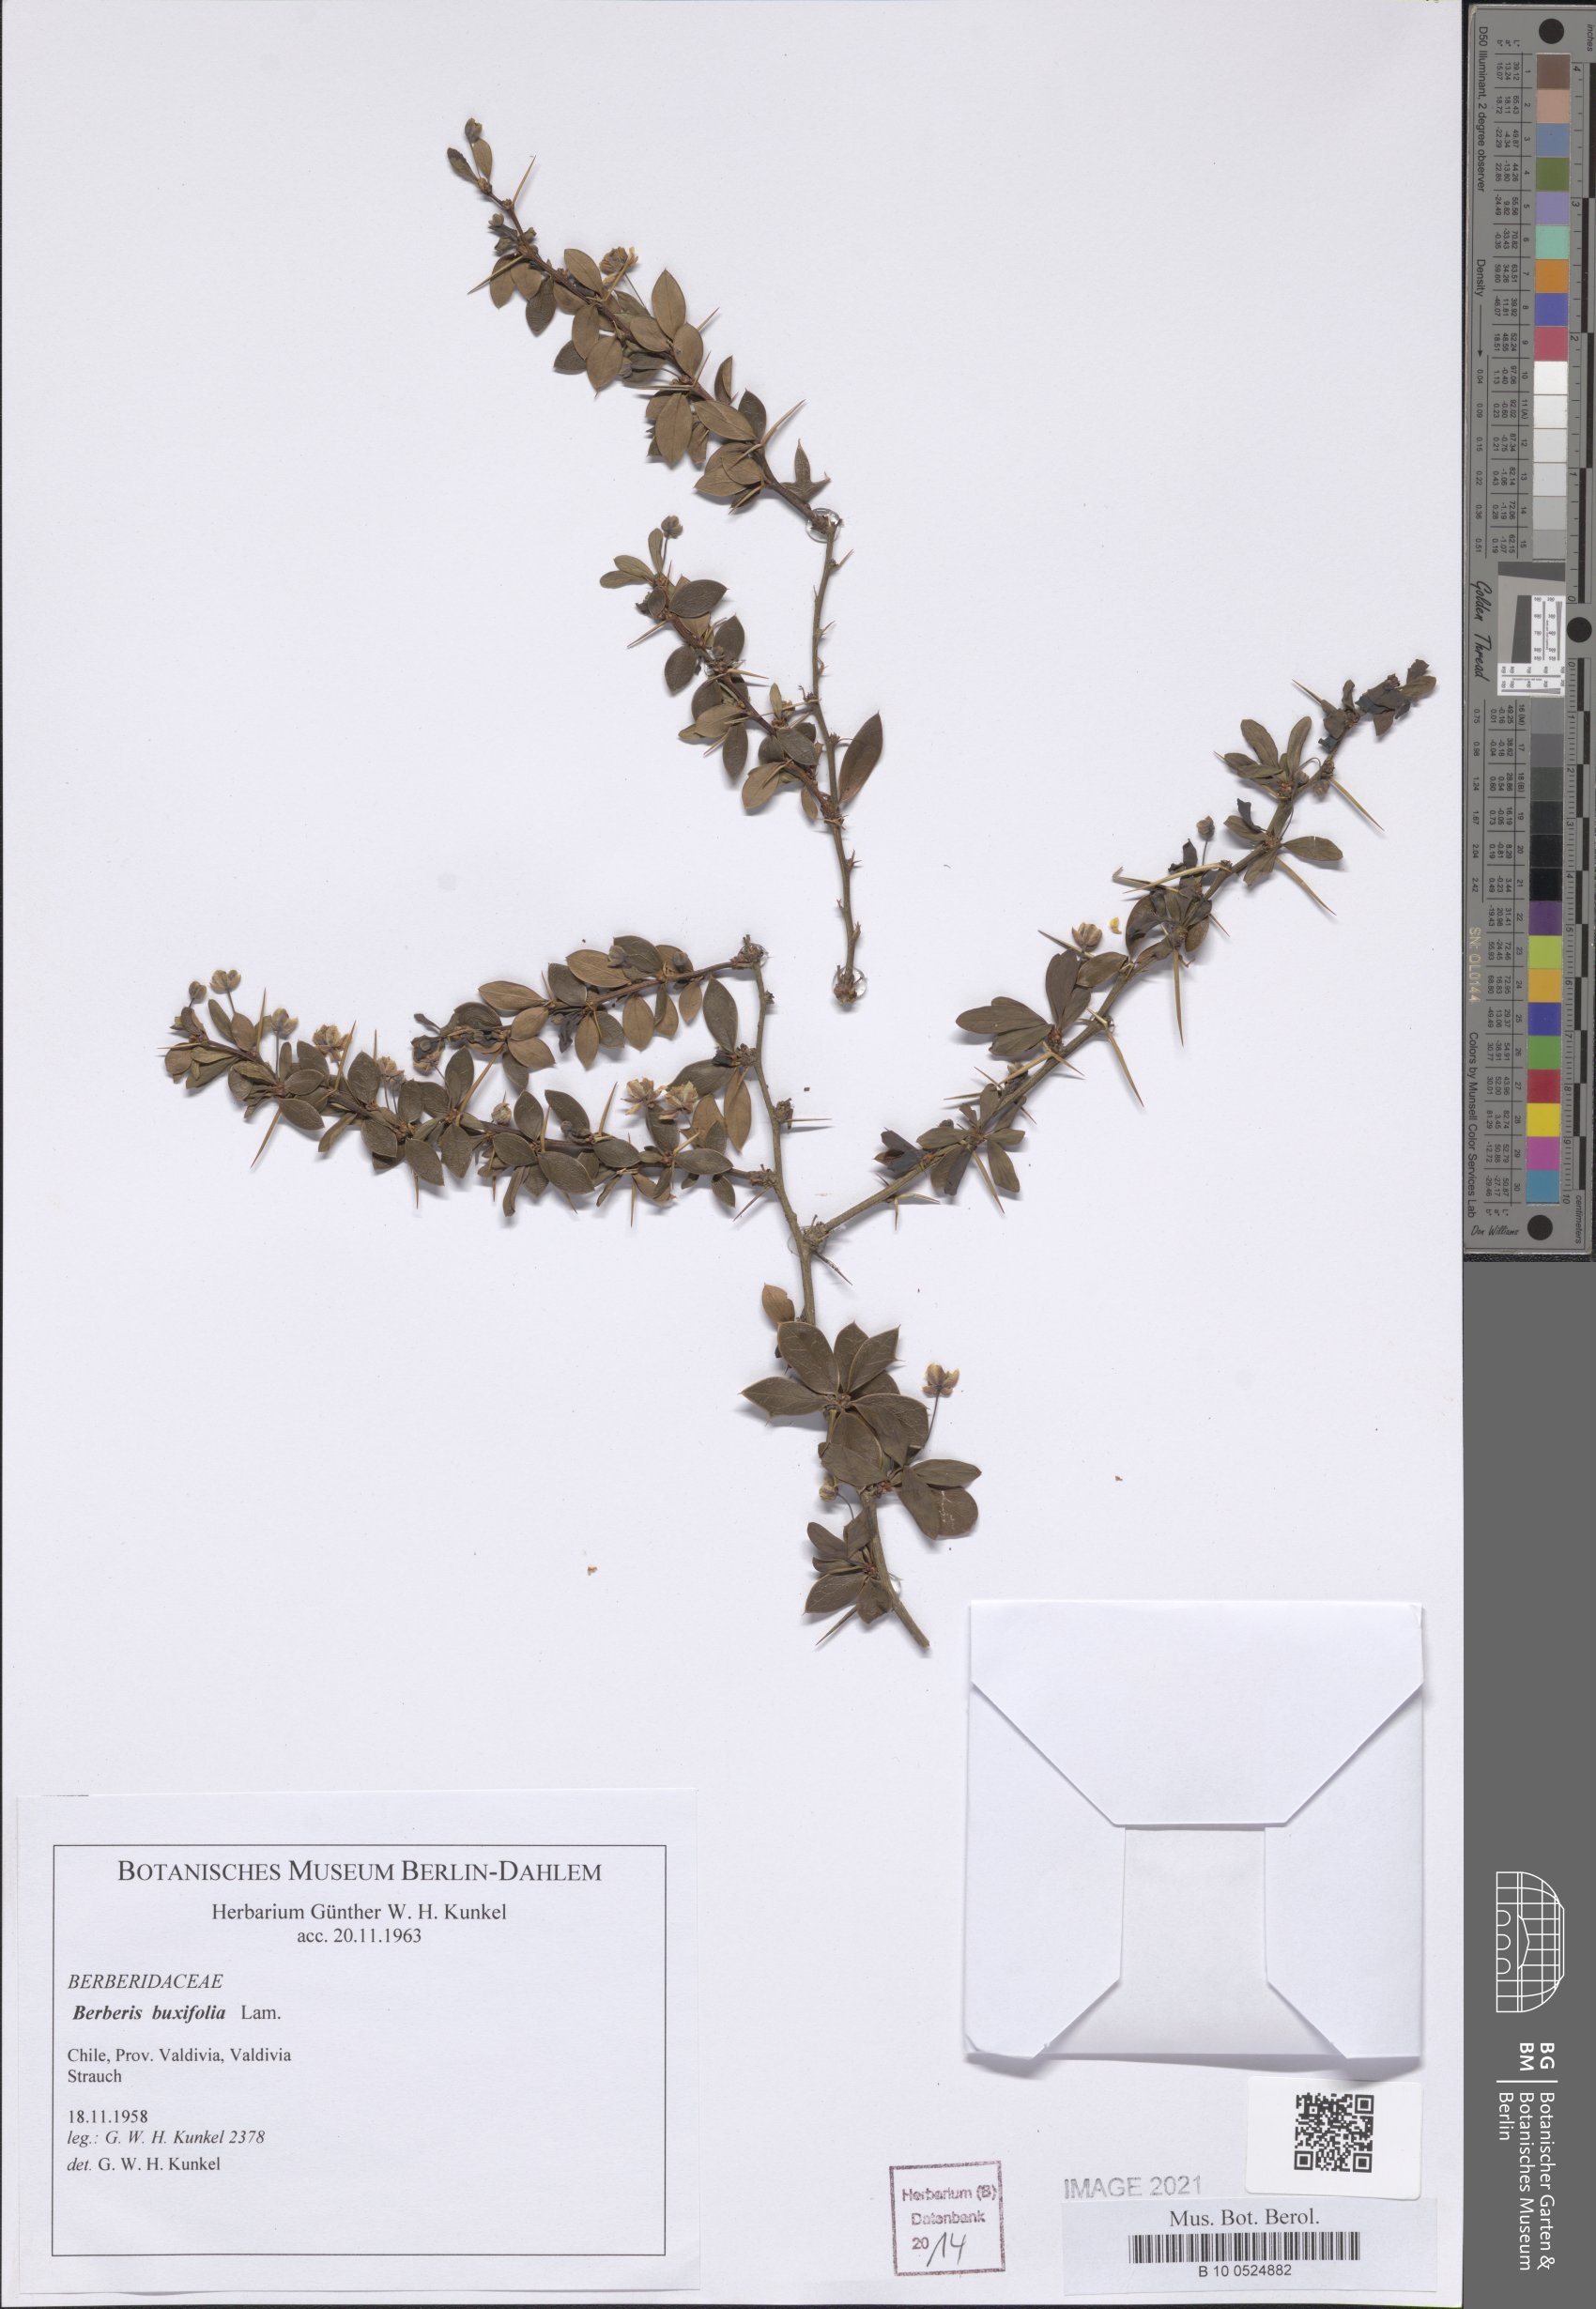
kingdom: Plantae
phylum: Tracheophyta
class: Magnoliopsida
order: Ranunculales
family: Berberidaceae
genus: Berberis
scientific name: Berberis microphylla
